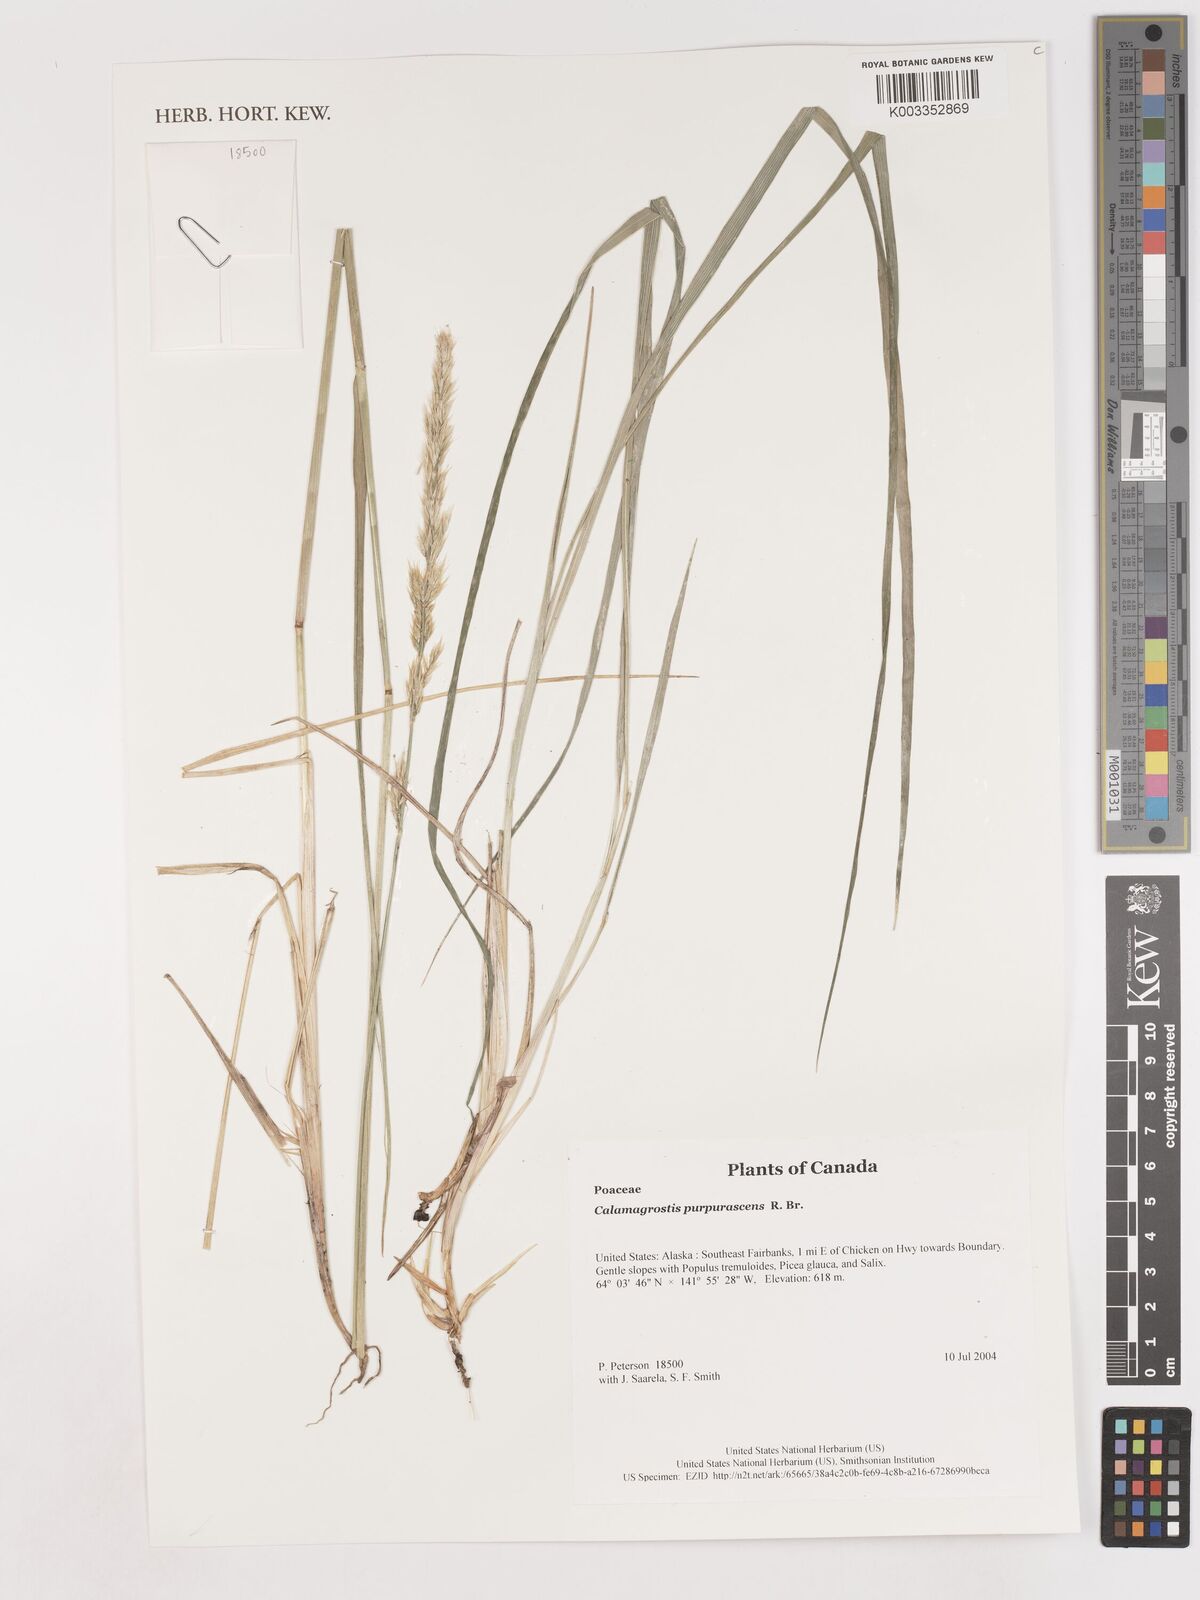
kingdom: Plantae
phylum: Tracheophyta
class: Liliopsida
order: Poales
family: Poaceae
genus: Calamagrostis
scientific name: Calamagrostis purpurascens
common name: Purple reedgrass
